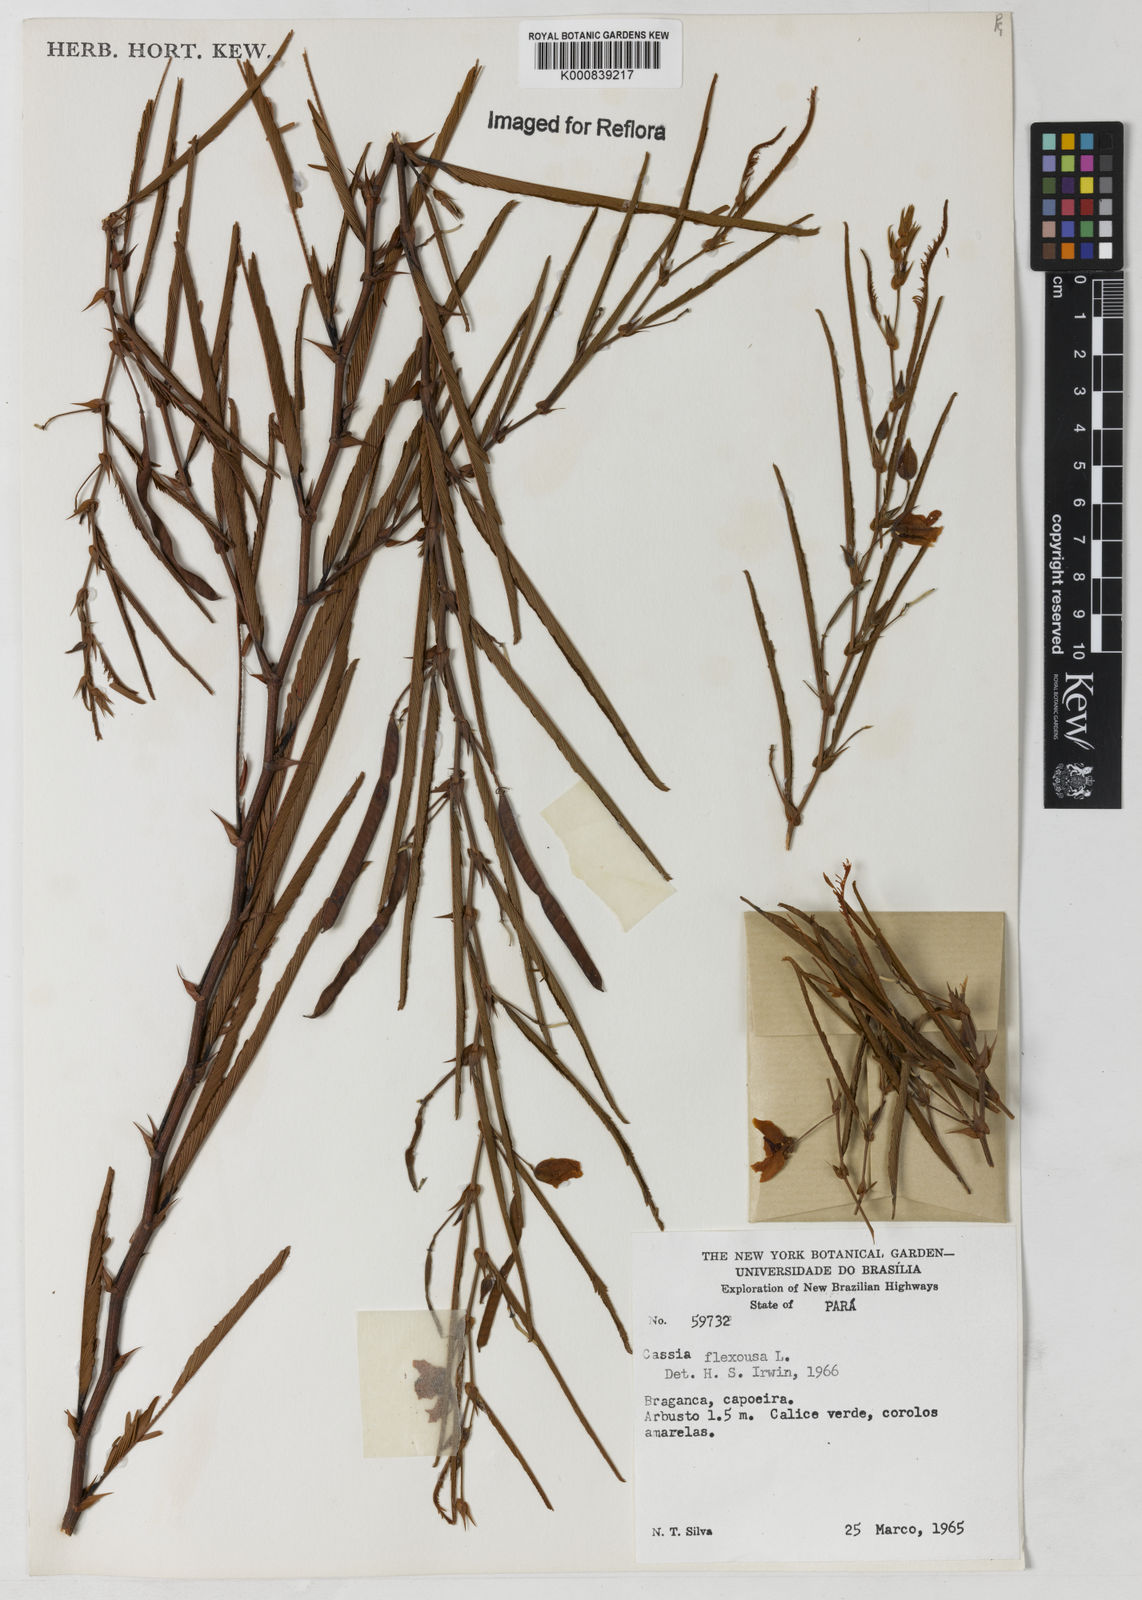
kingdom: Plantae
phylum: Tracheophyta
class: Magnoliopsida
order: Fabales
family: Fabaceae
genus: Chamaecrista
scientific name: Chamaecrista flexuosa
